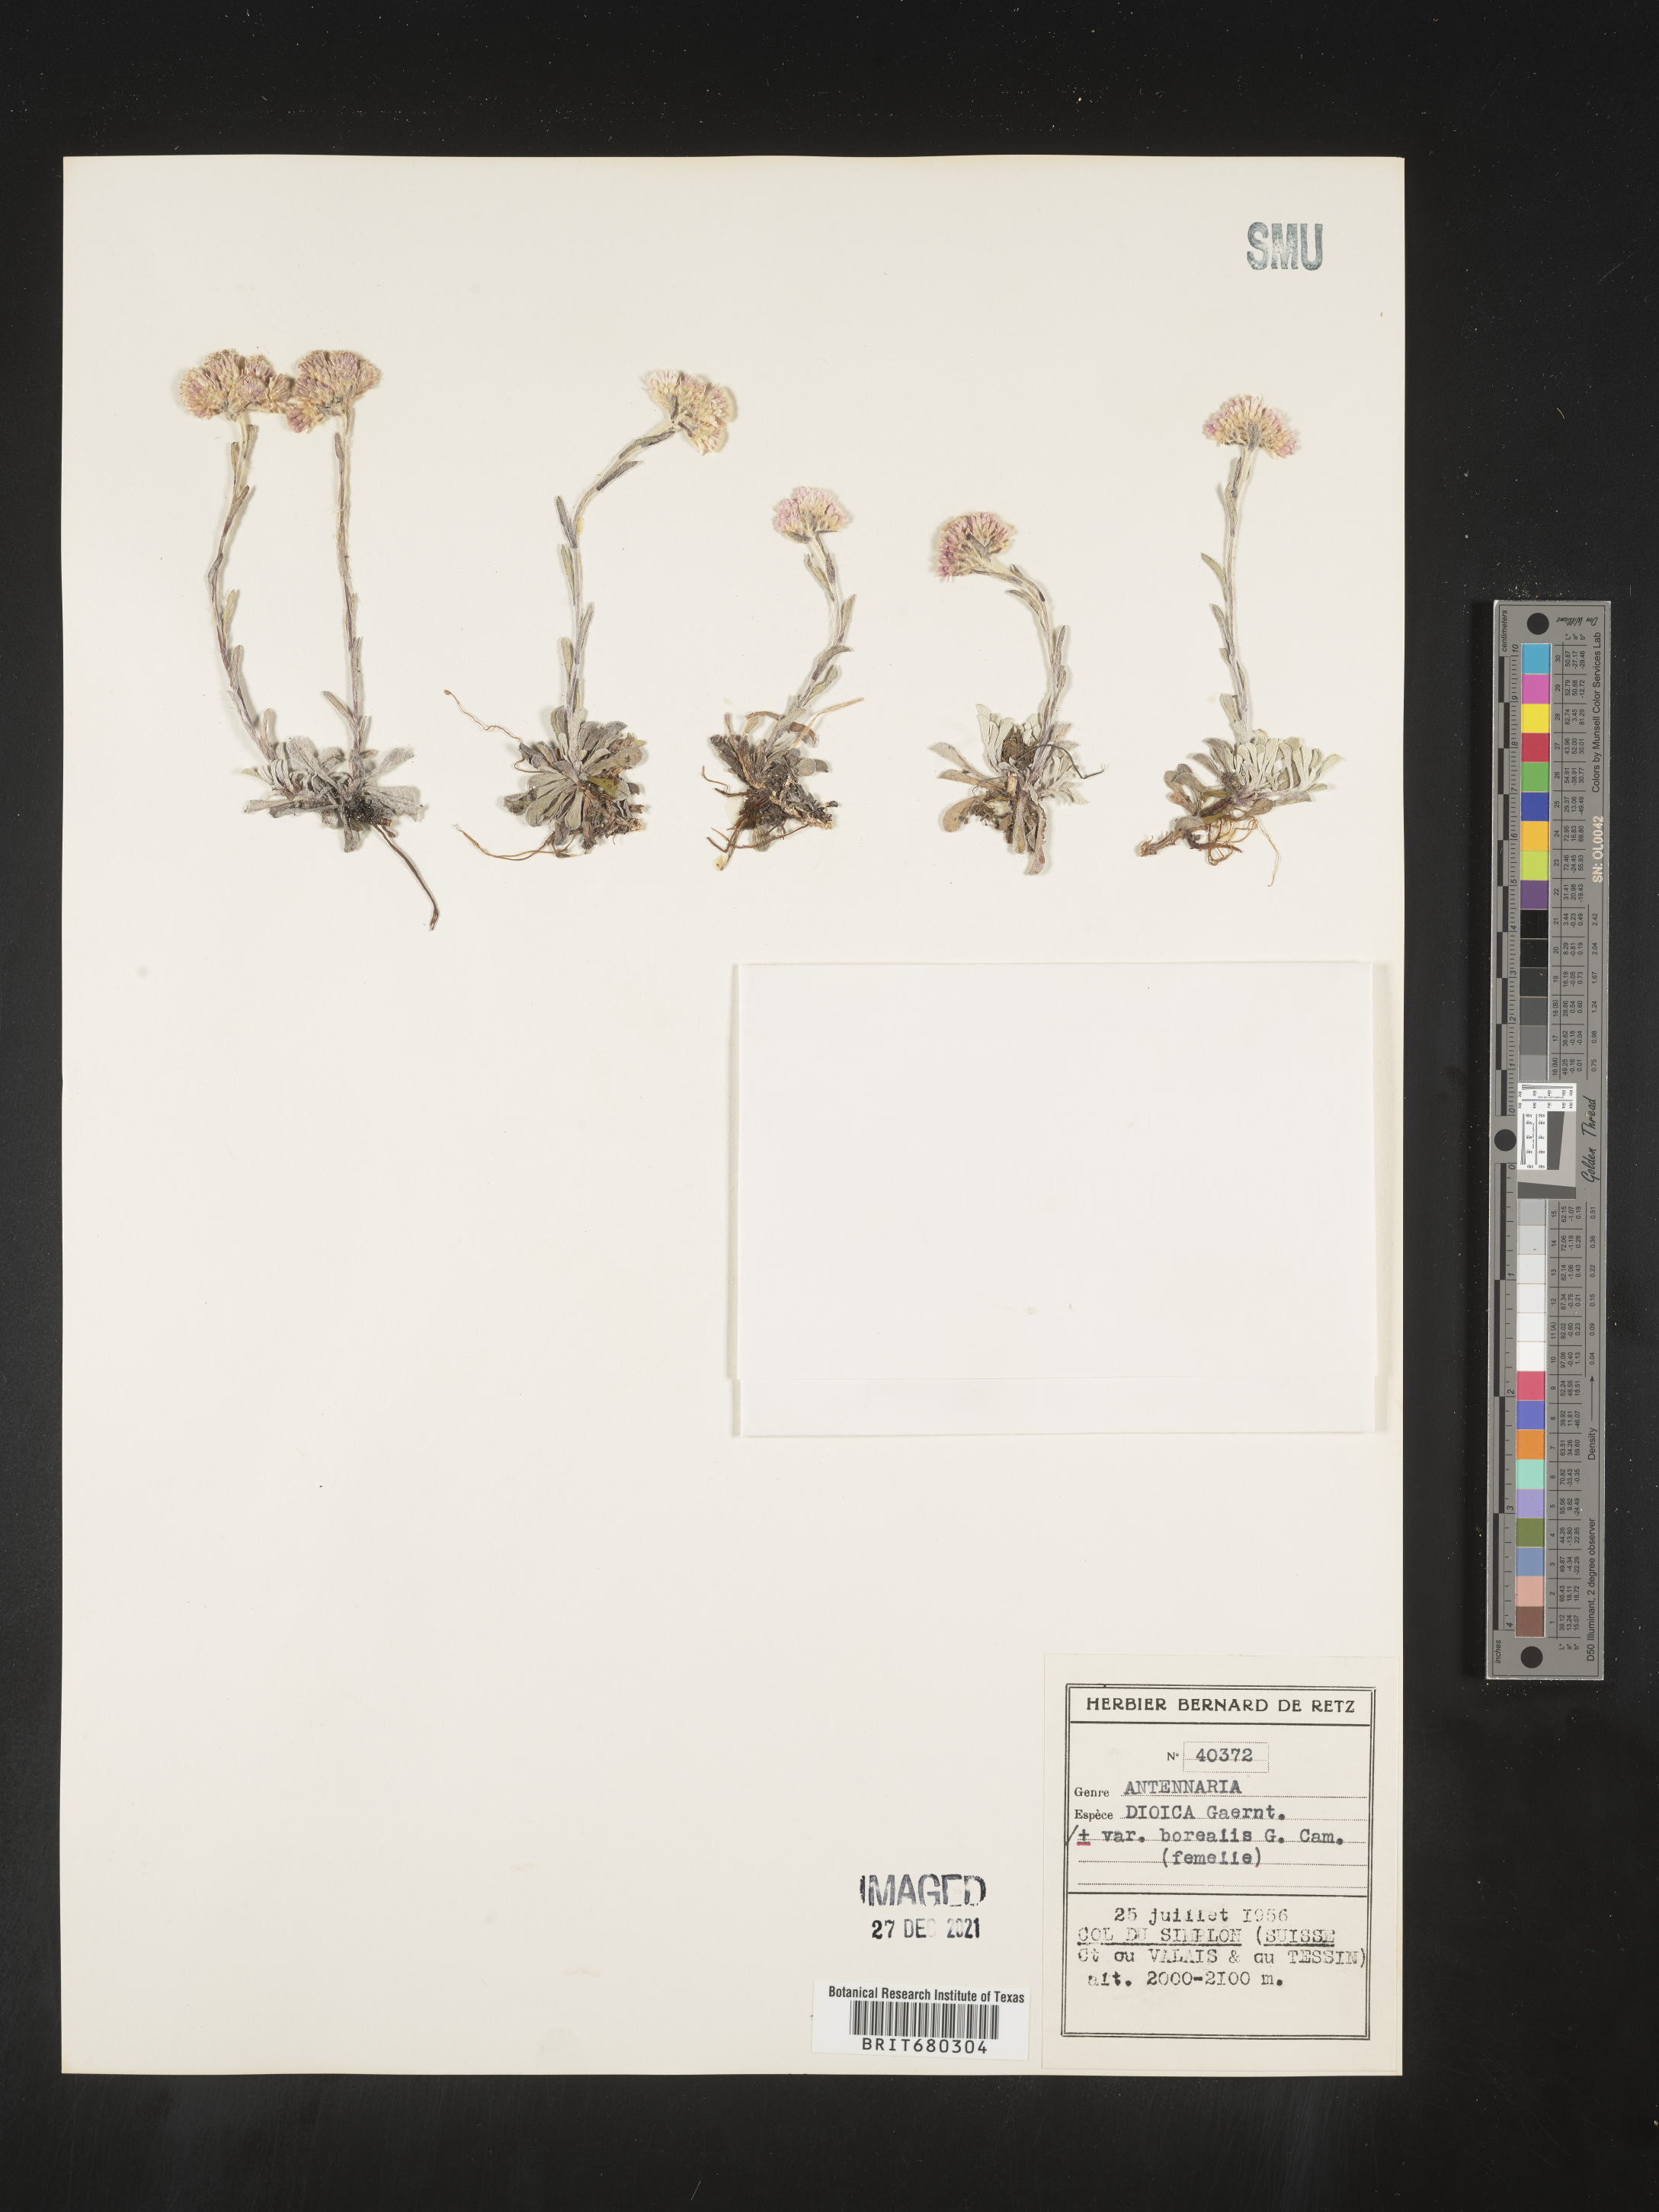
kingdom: Plantae
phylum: Tracheophyta
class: Magnoliopsida
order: Asterales
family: Asteraceae
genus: Antennaria
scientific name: Antennaria dioica
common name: Mountain everlasting
